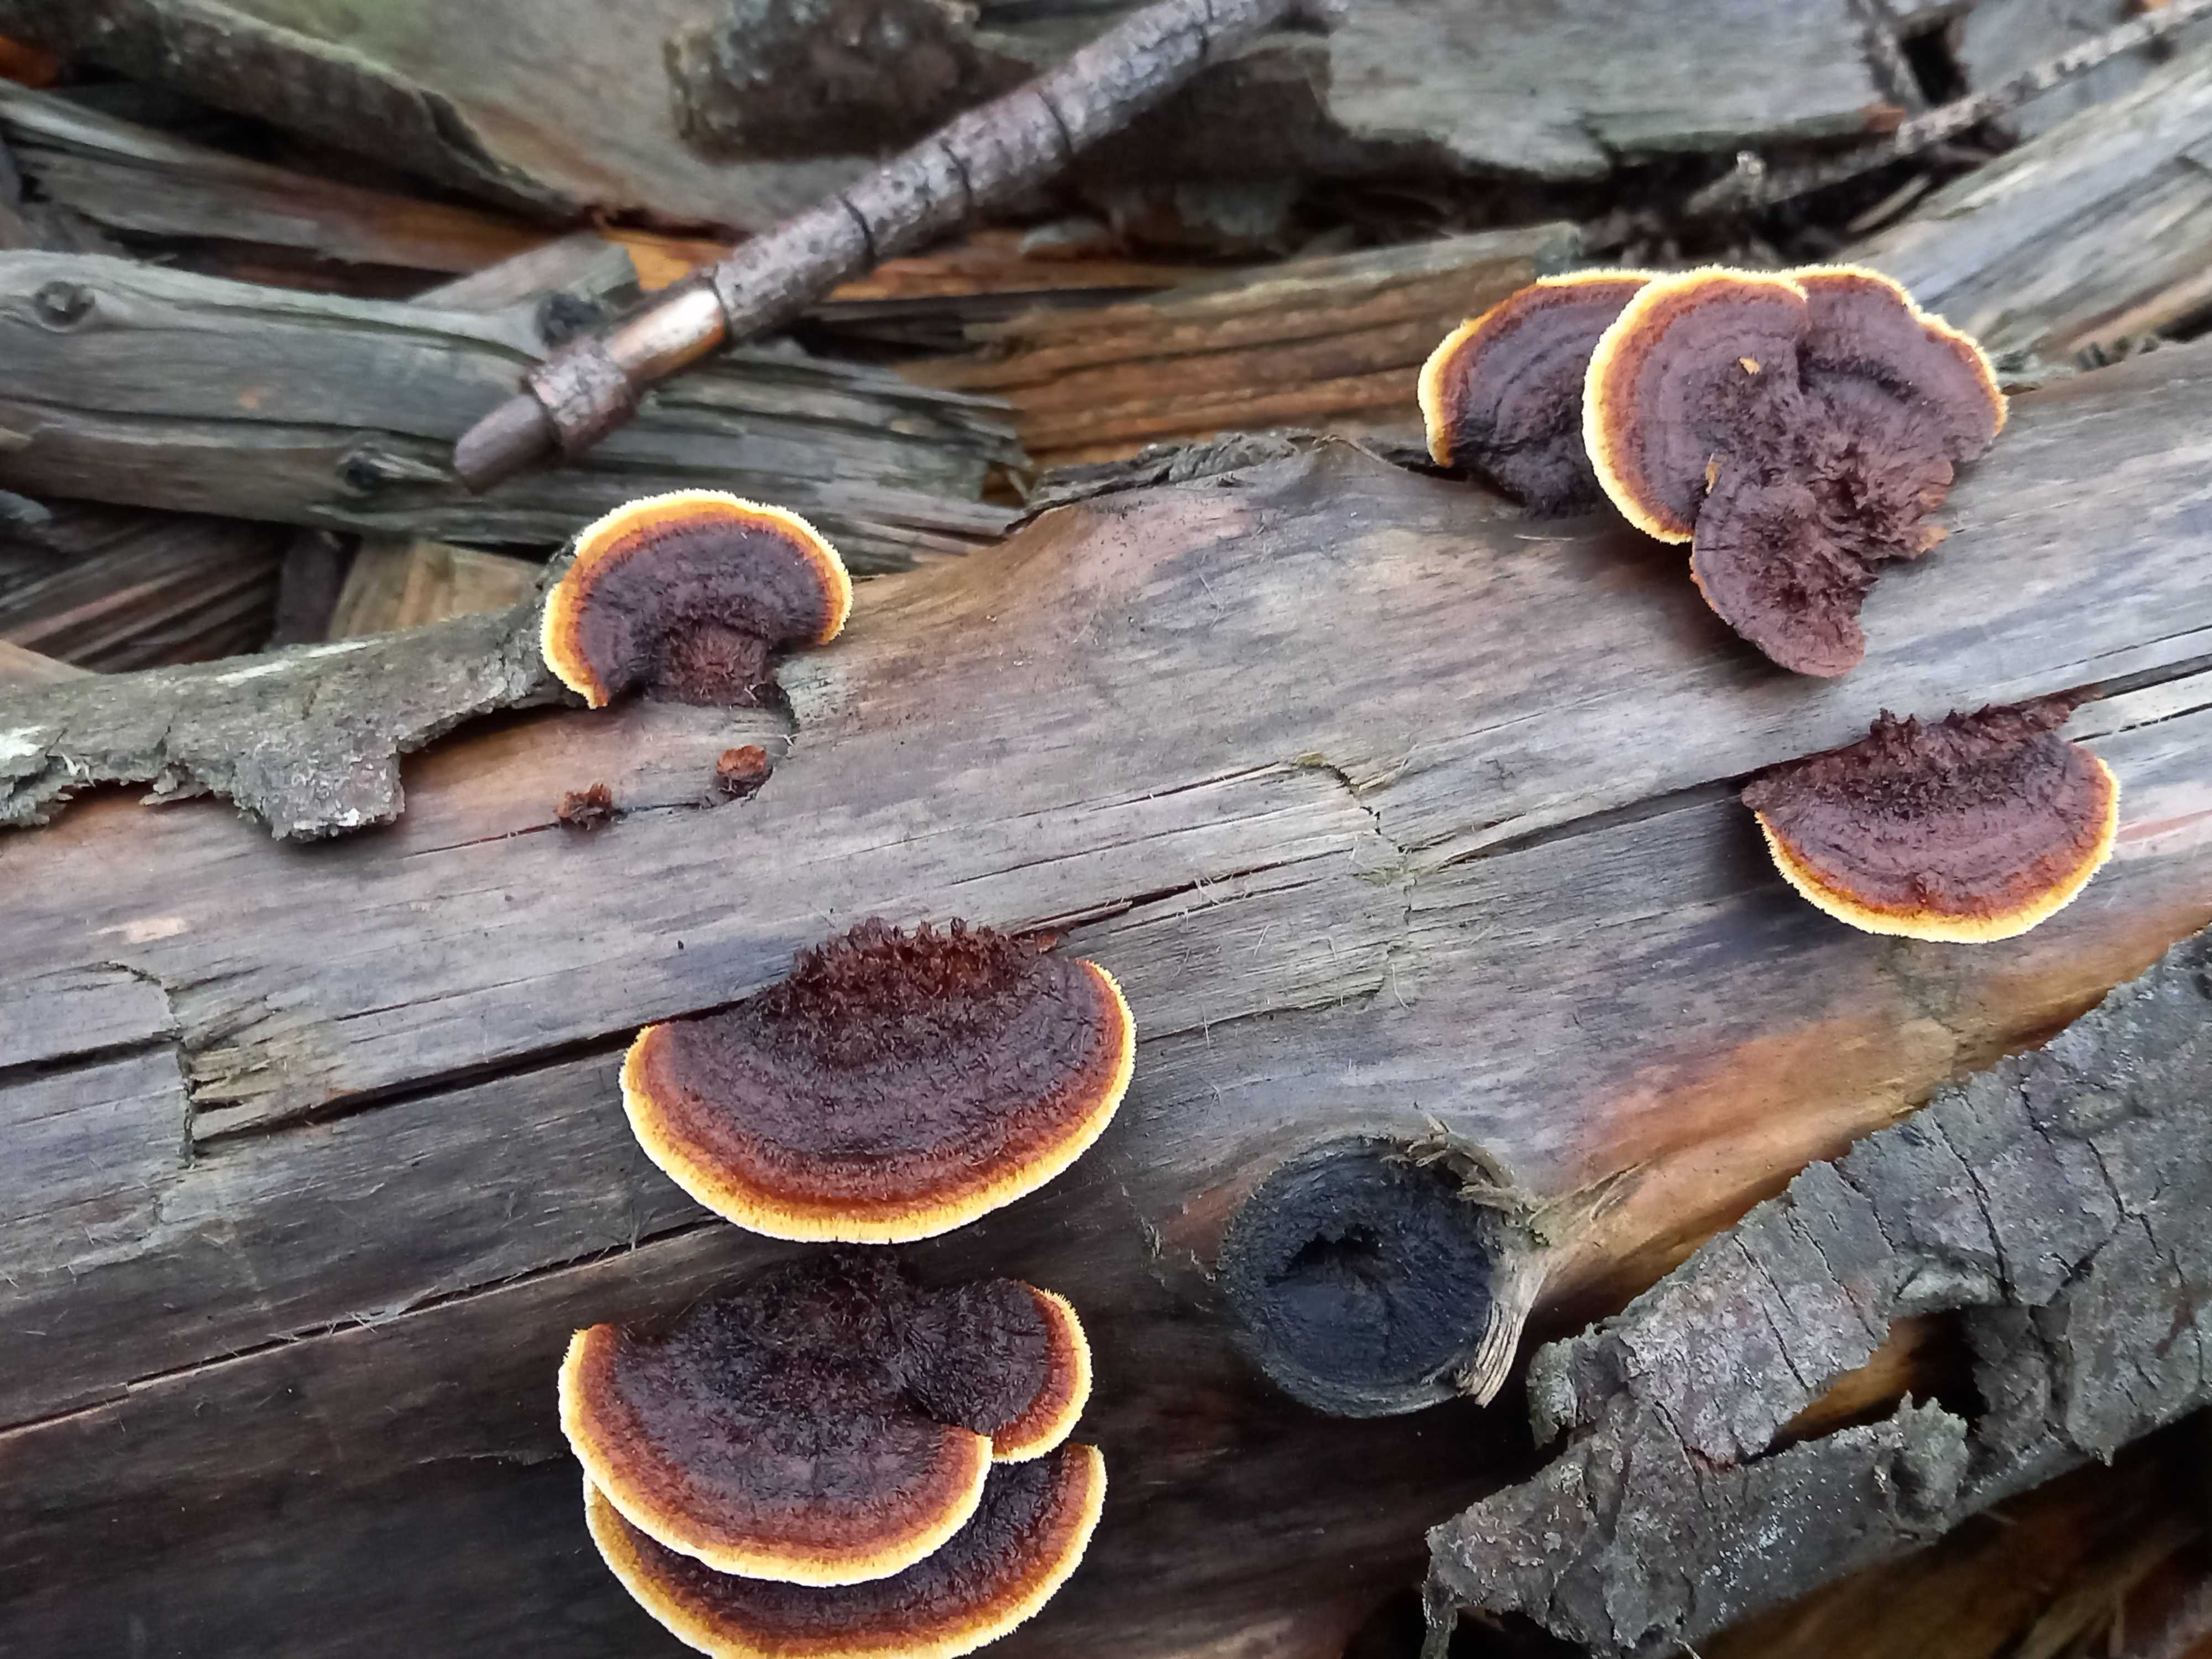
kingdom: Fungi
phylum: Basidiomycota
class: Agaricomycetes
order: Gloeophyllales
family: Gloeophyllaceae
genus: Gloeophyllum
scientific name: Gloeophyllum sepiarium
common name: fyrre-korkhat
